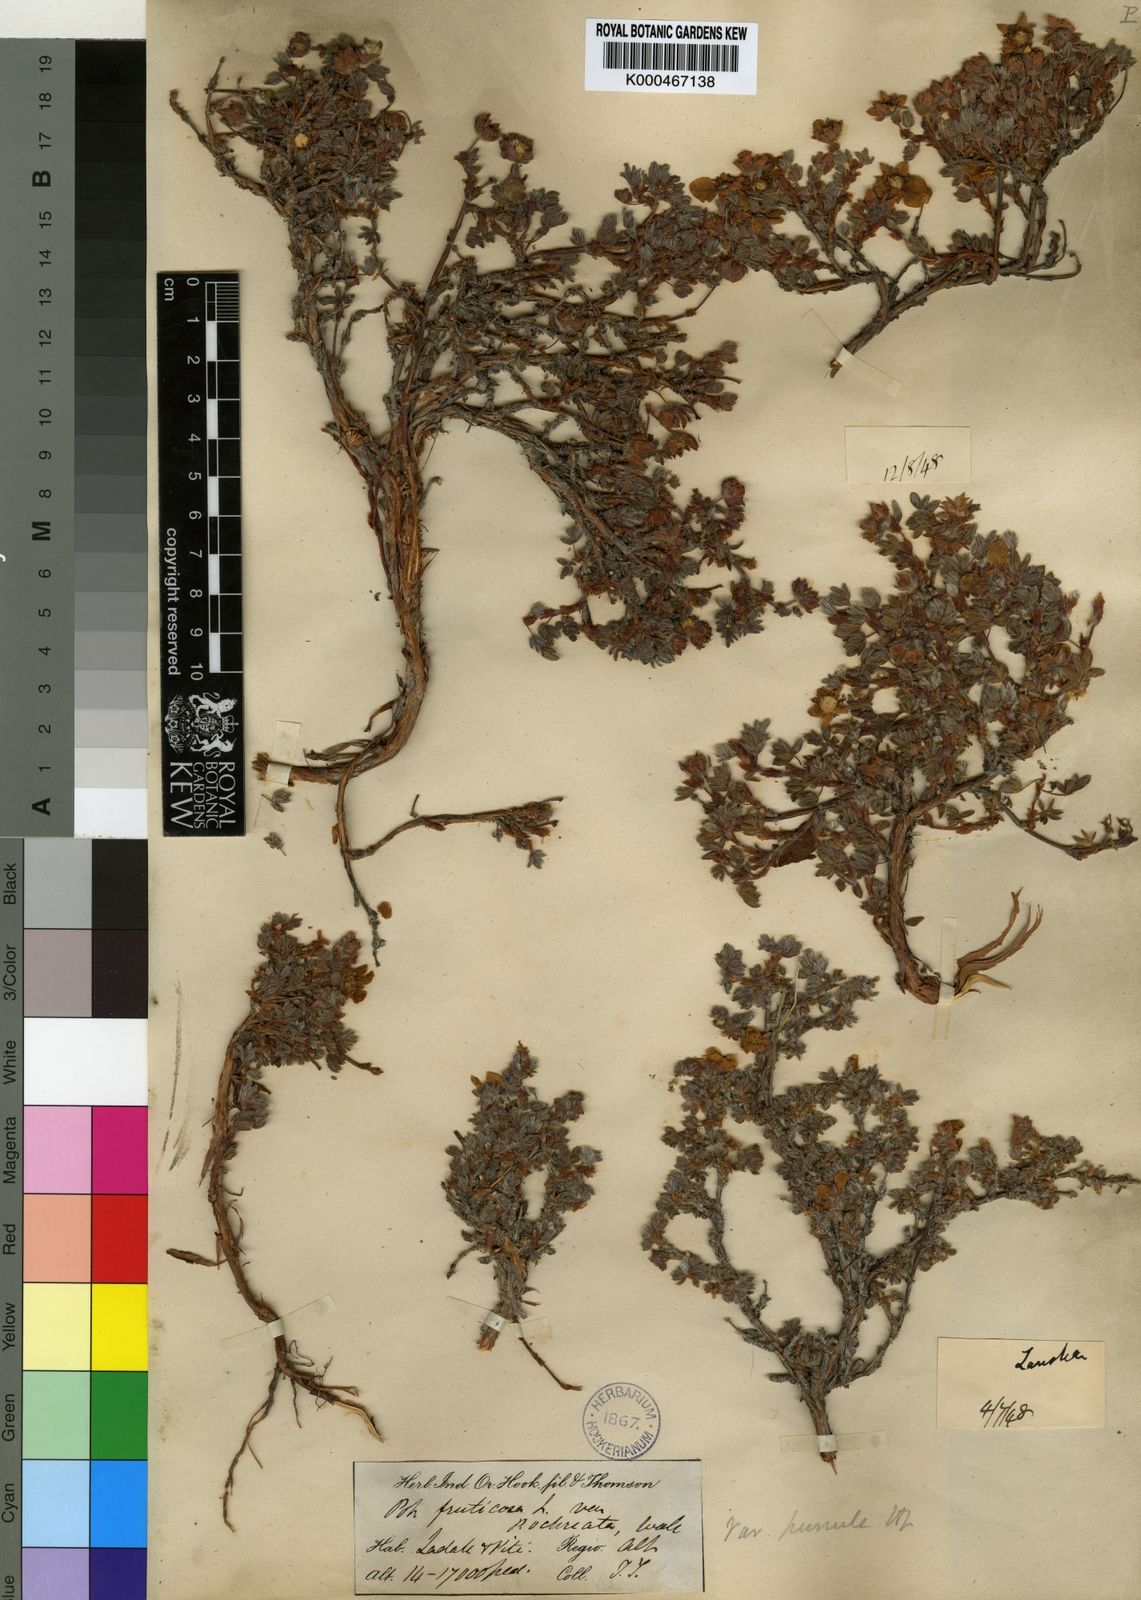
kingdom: Plantae
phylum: Tracheophyta
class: Magnoliopsida
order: Rosales
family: Rosaceae
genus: Dasiphora
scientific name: Dasiphora fruticosa
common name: Shrubby cinquefoil
